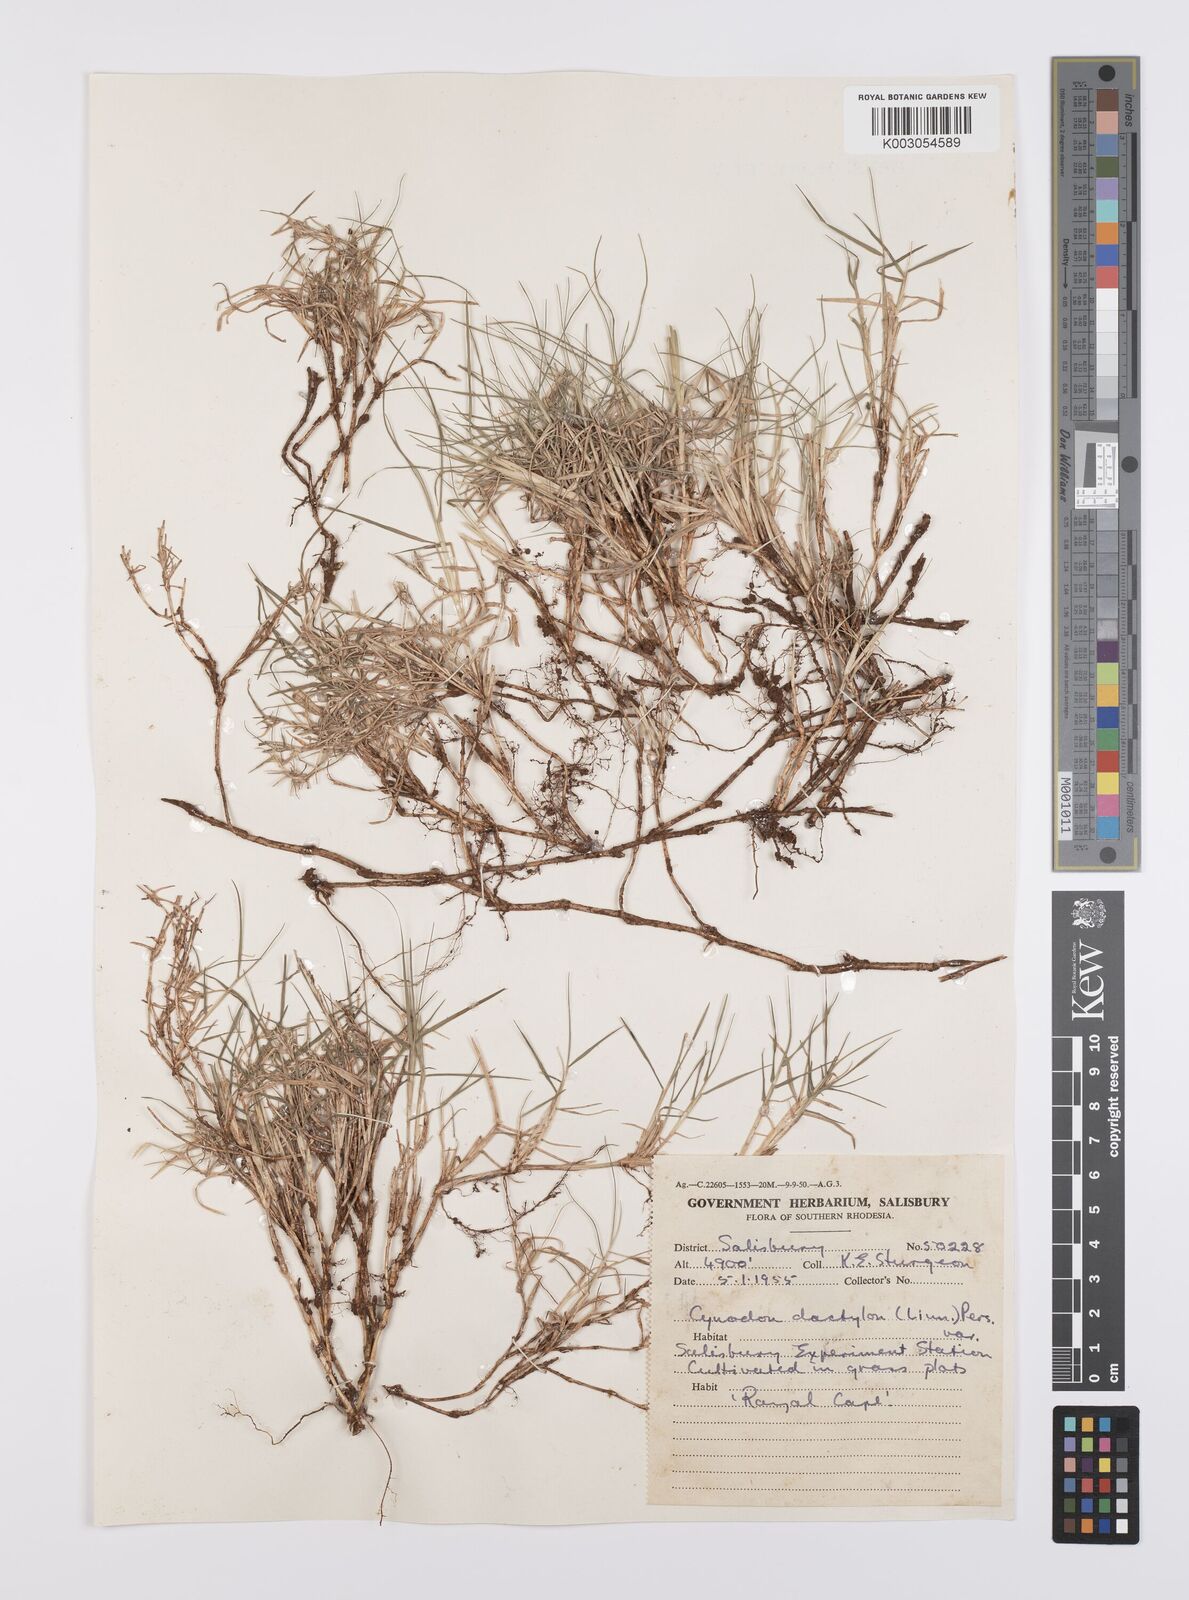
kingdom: Plantae
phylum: Tracheophyta
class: Liliopsida
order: Poales
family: Poaceae
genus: Cynodon
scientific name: Cynodon dactylon
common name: Bermuda grass
